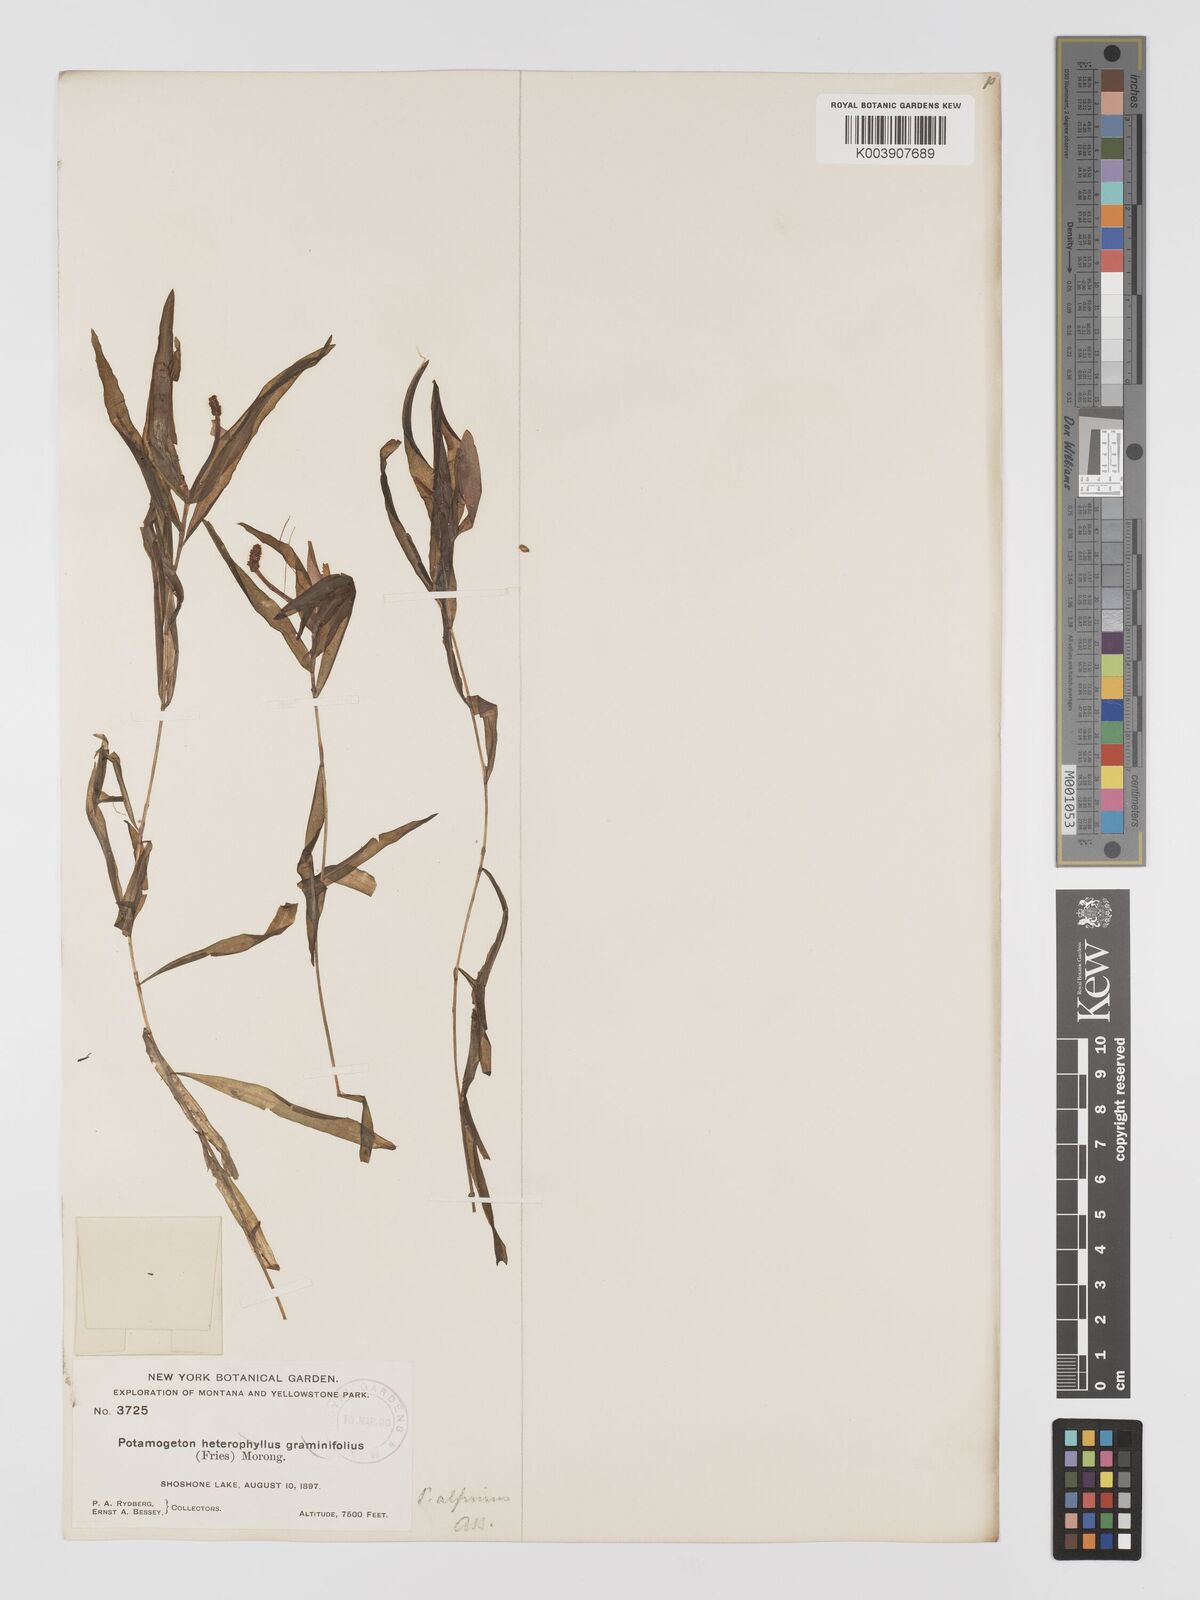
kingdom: Plantae
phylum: Tracheophyta
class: Liliopsida
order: Alismatales
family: Potamogetonaceae
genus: Potamogeton
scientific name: Potamogeton alpinus
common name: Red pondweed
